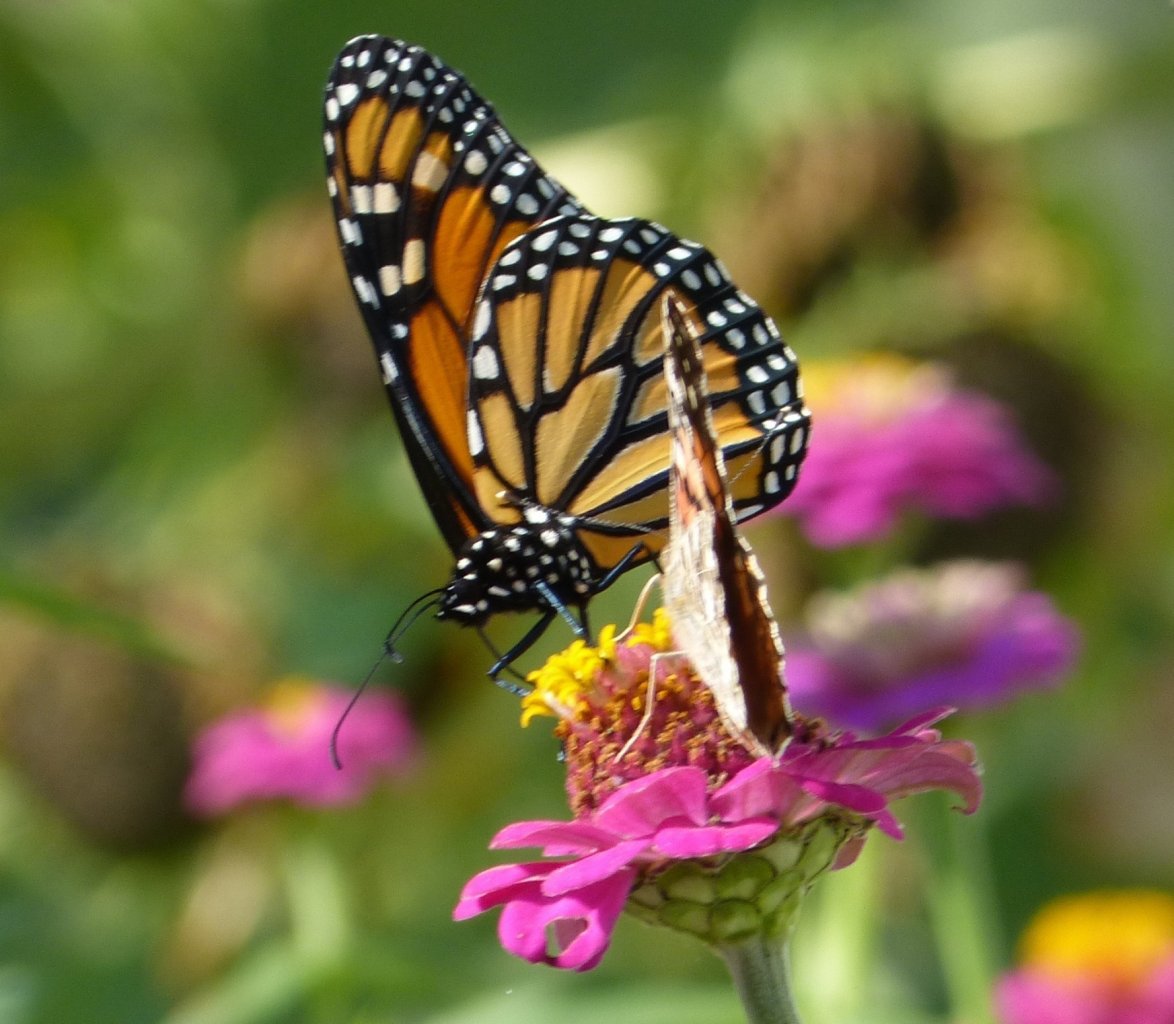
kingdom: Animalia
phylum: Arthropoda
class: Insecta
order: Lepidoptera
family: Nymphalidae
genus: Danaus
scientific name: Danaus plexippus
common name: Monarch
